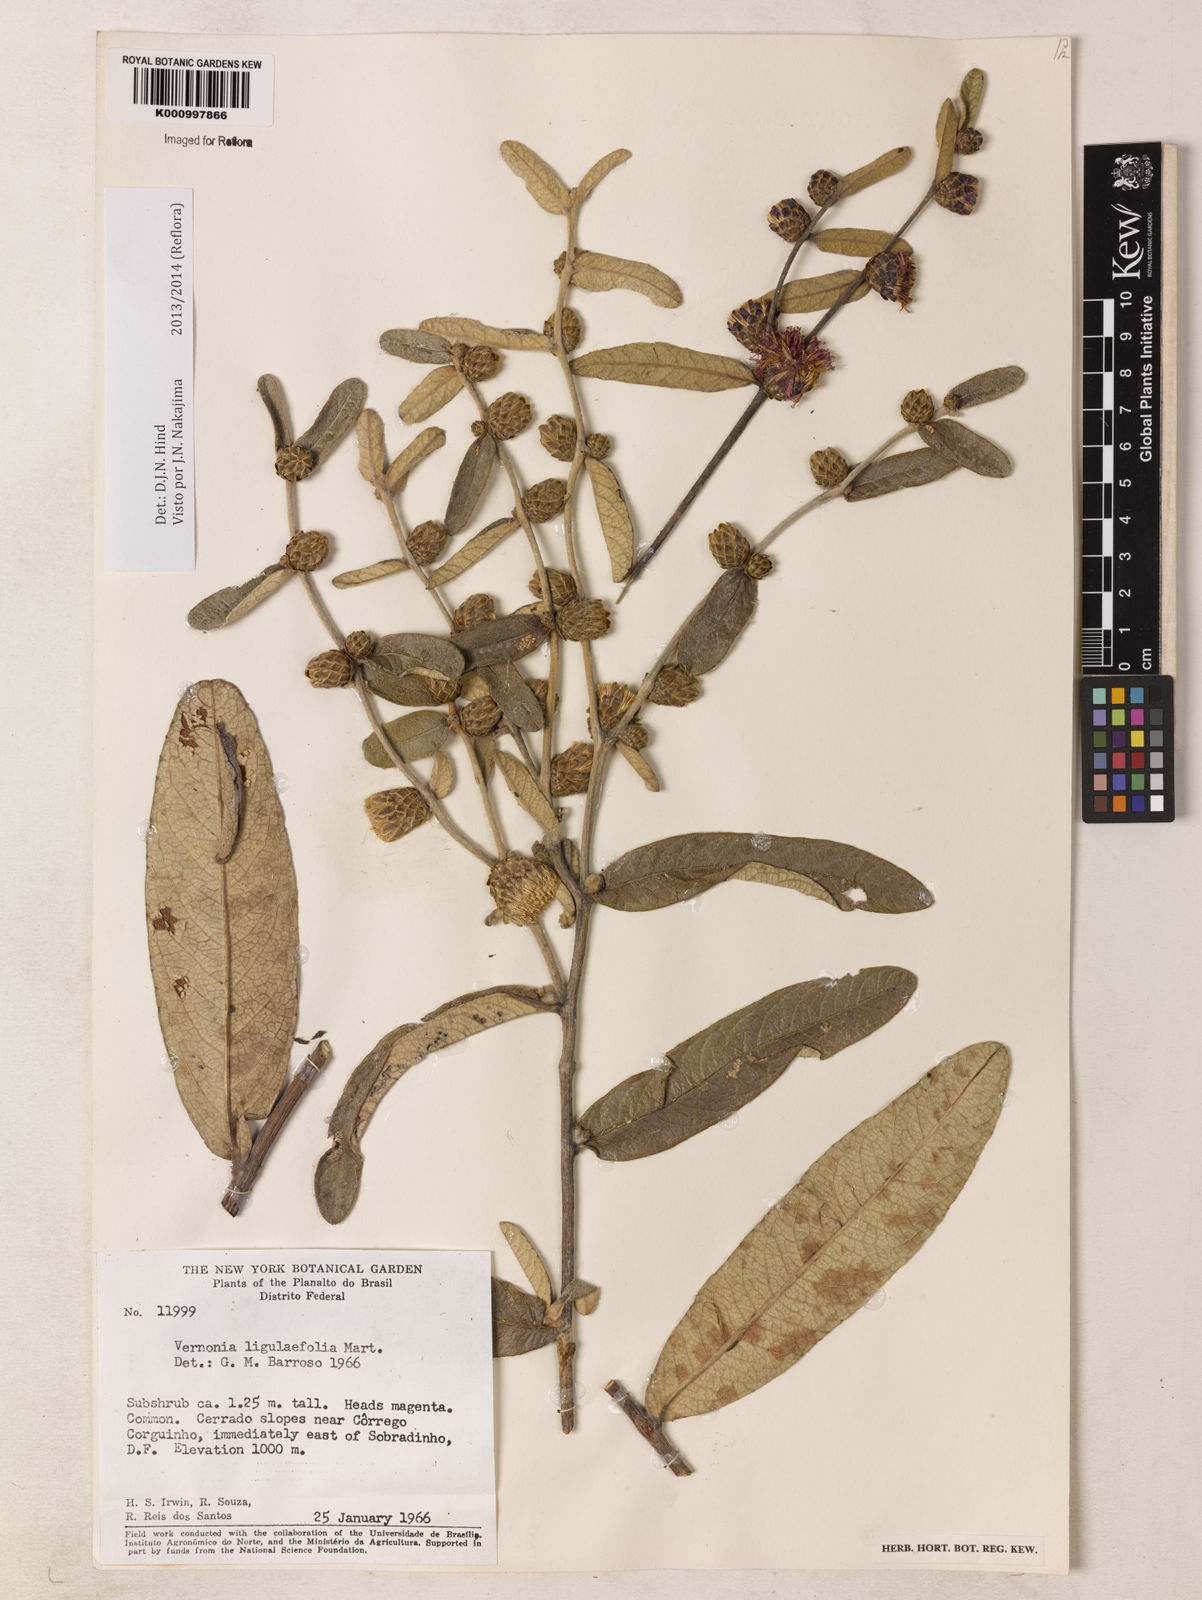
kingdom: Plantae
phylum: Tracheophyta
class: Magnoliopsida
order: Asterales
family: Asteraceae
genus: Lessingianthus
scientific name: Lessingianthus ligulifolius
